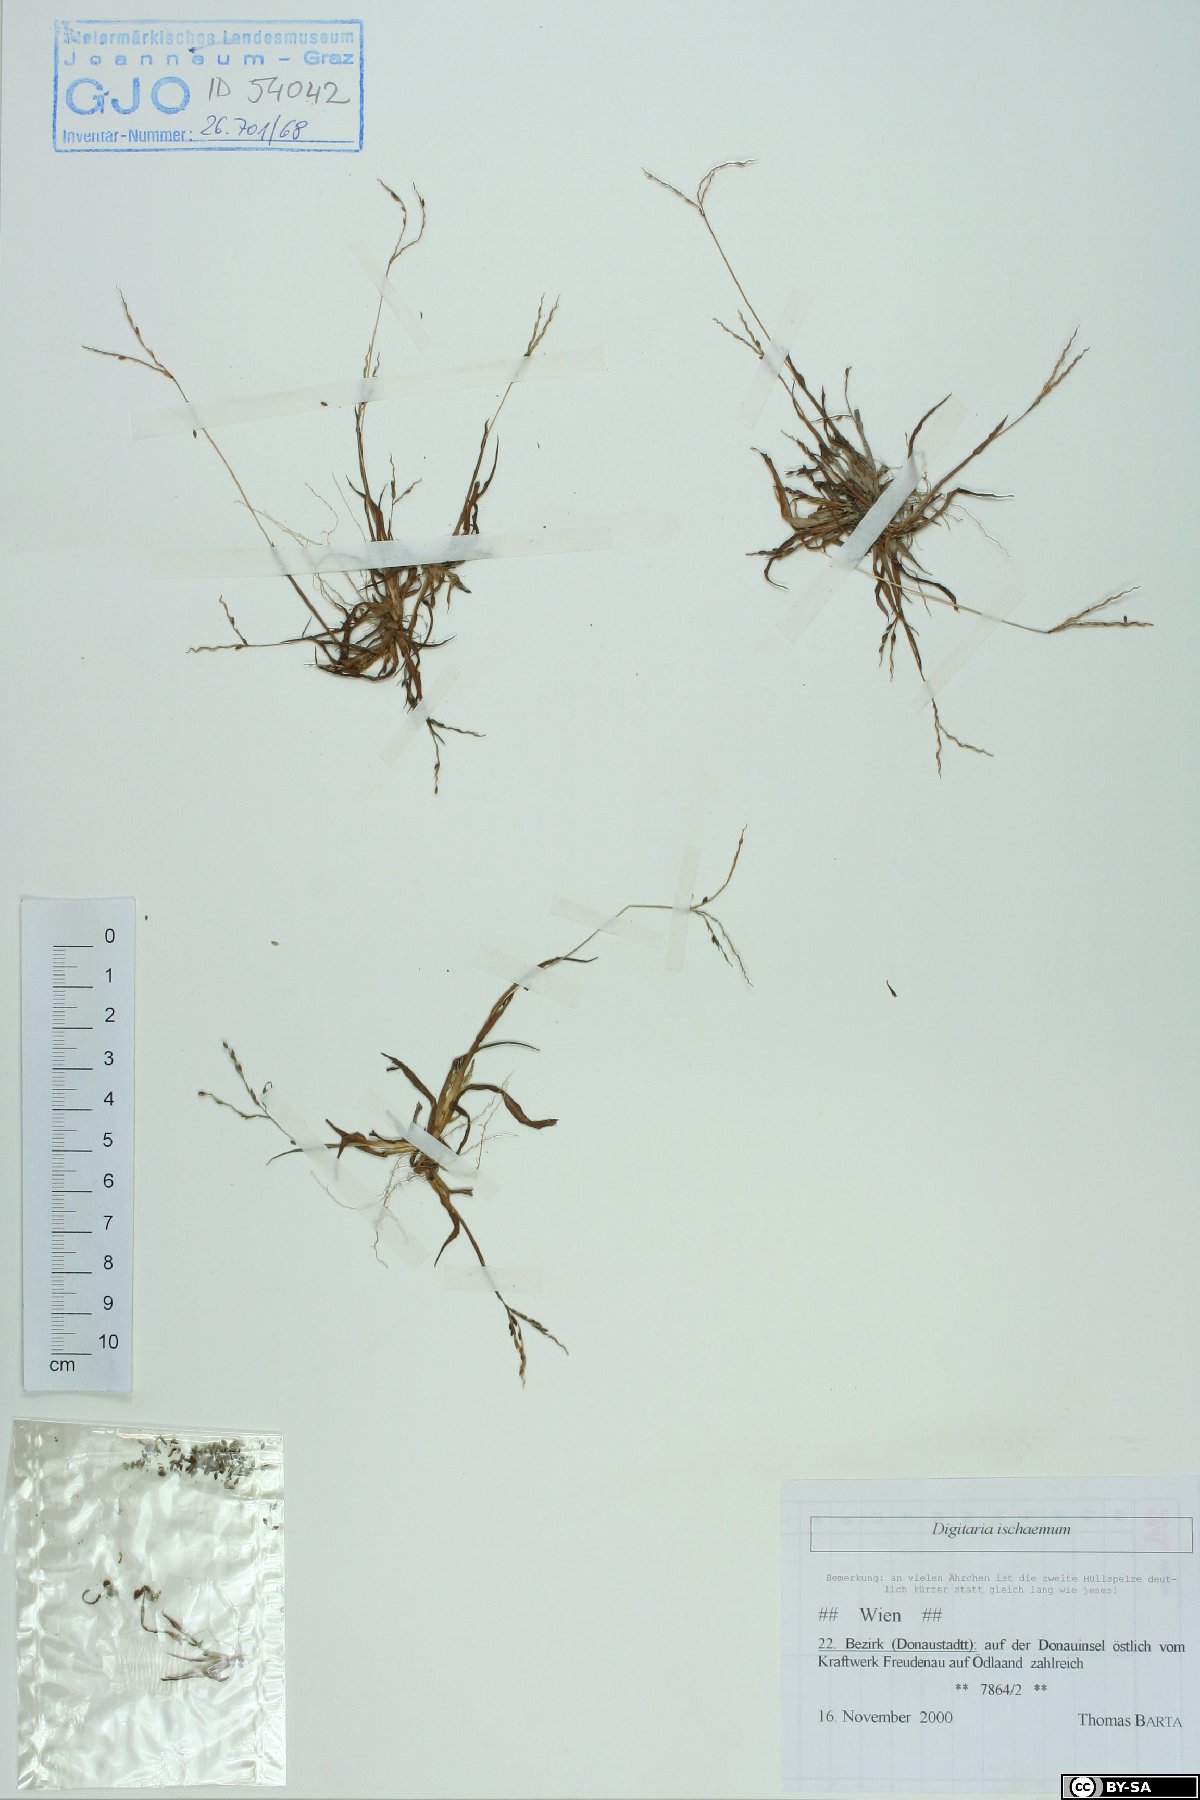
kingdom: Plantae
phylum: Tracheophyta
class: Liliopsida
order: Poales
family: Poaceae
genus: Digitaria
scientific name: Digitaria ischaemum
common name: Smooth crabgrass
